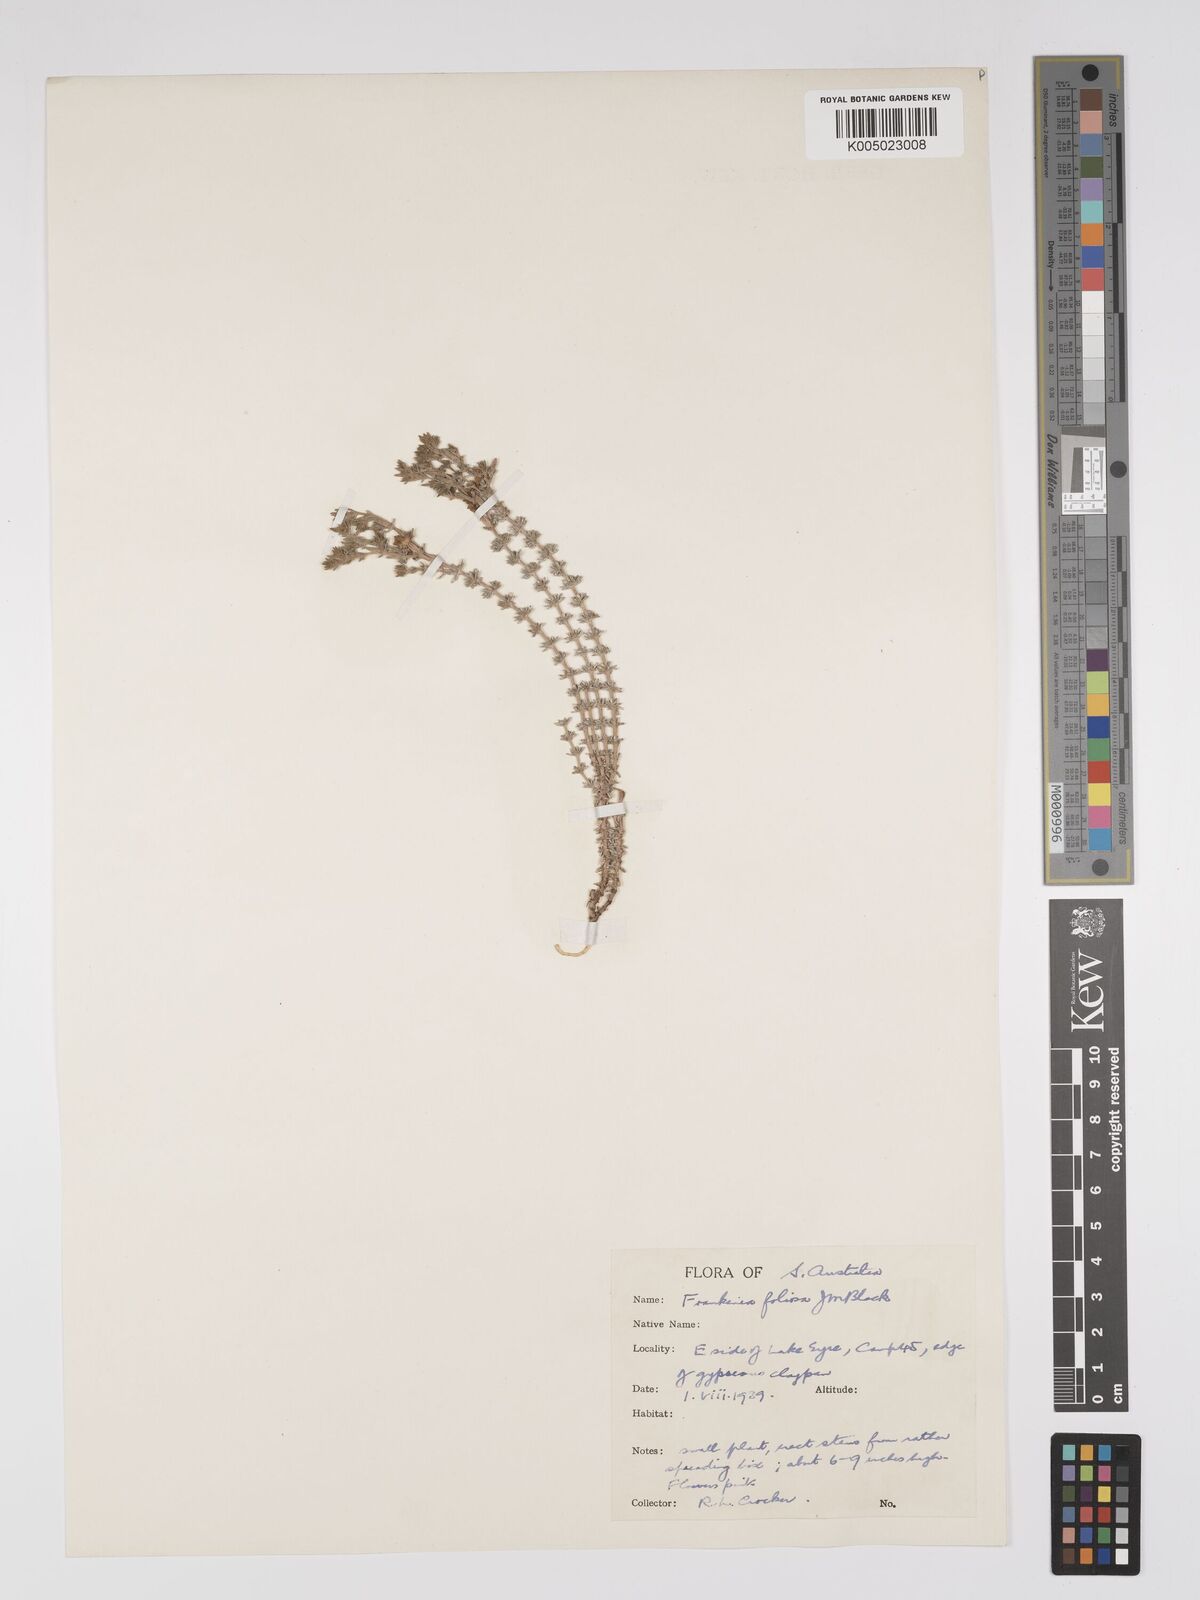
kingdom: Plantae
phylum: Tracheophyta
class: Magnoliopsida
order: Caryophyllales
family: Frankeniaceae
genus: Frankenia
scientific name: Frankenia foliosa
